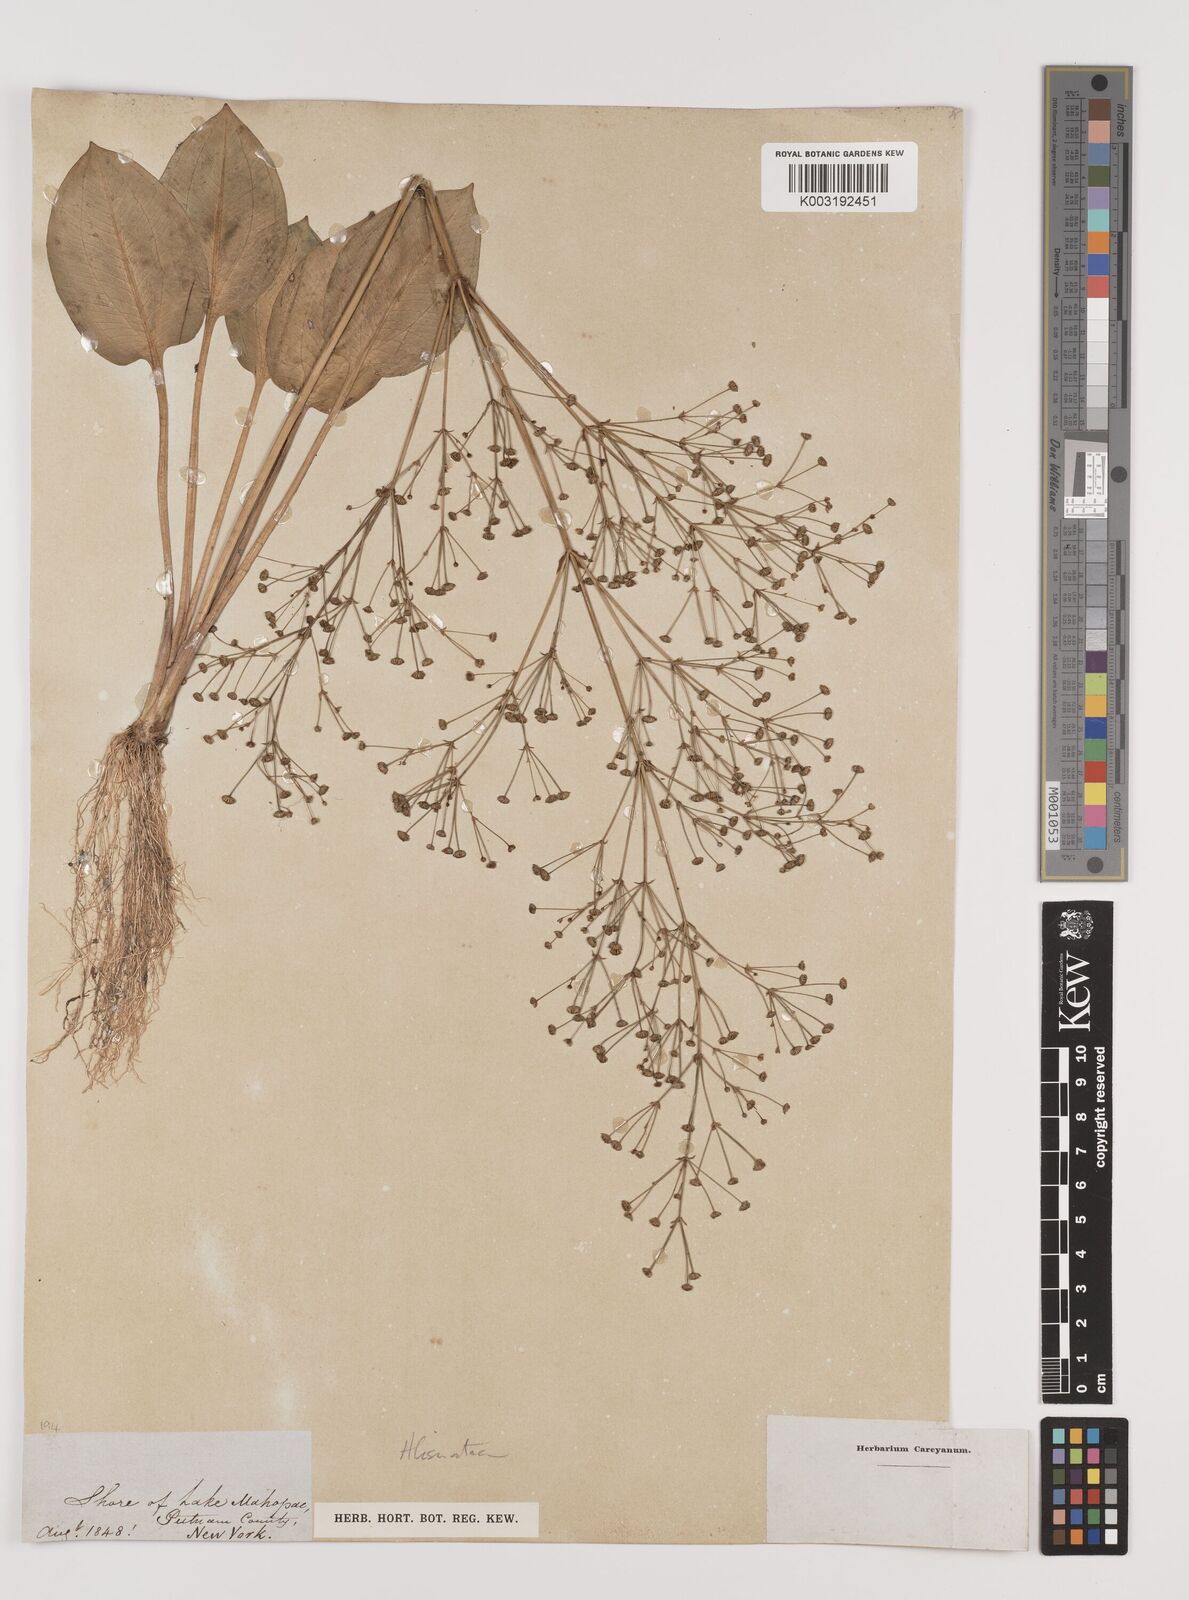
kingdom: Plantae
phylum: Tracheophyta
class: Liliopsida
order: Alismatales
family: Alismataceae
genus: Alisma
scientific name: Alisma
